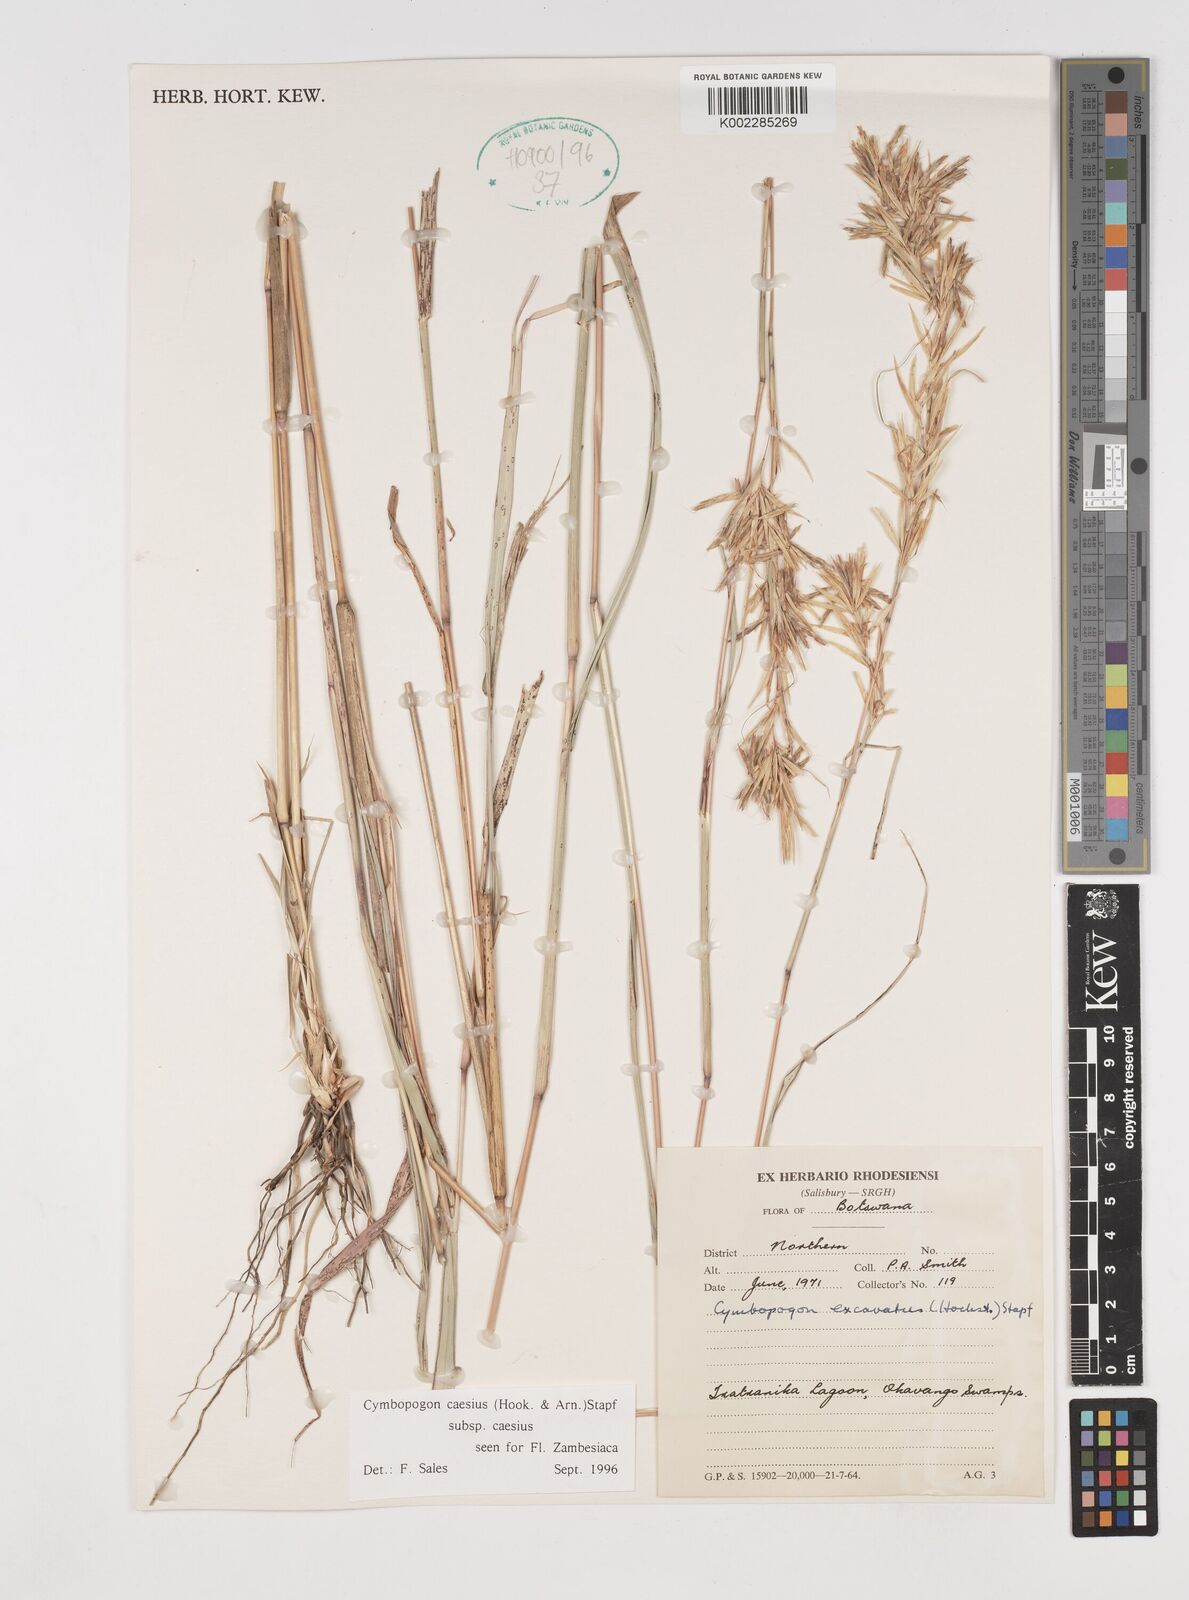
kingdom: Plantae
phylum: Tracheophyta
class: Liliopsida
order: Poales
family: Poaceae
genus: Cymbopogon
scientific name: Cymbopogon caesius
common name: Kachi grass
